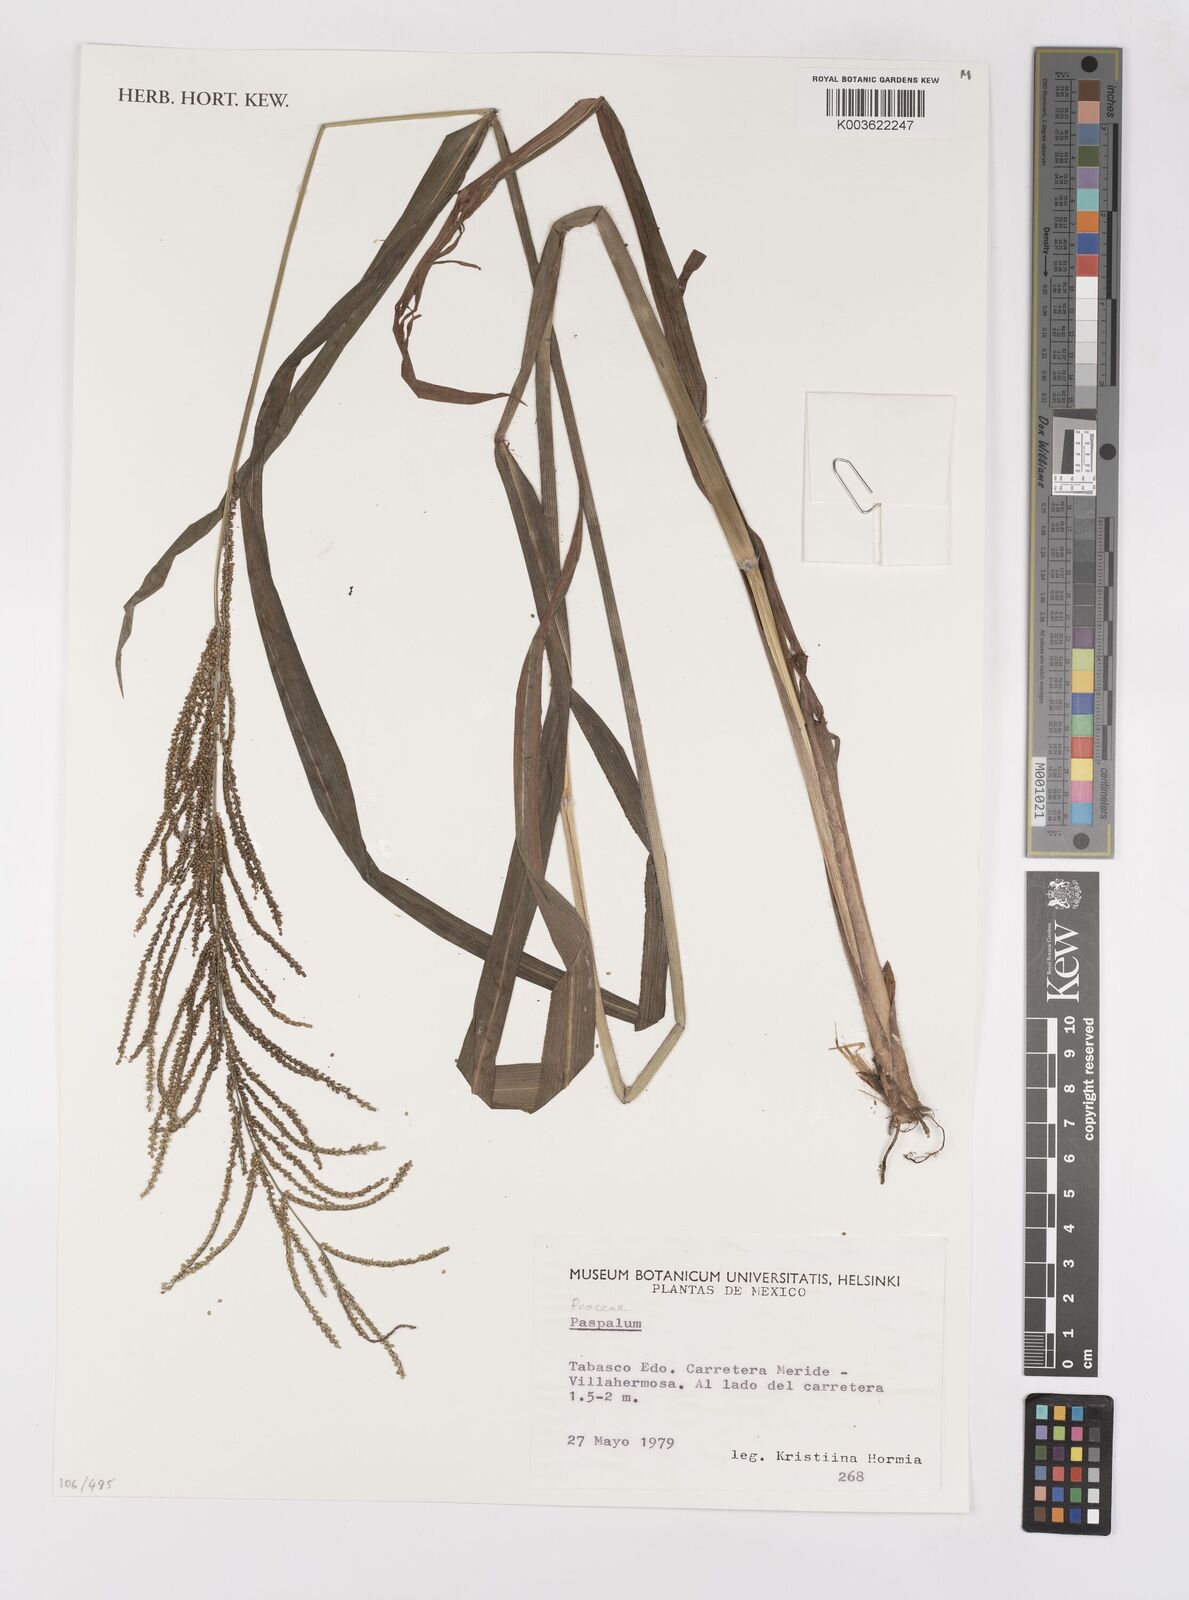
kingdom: Plantae
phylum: Tracheophyta
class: Liliopsida
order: Poales
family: Poaceae
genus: Paspalum
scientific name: Paspalum
